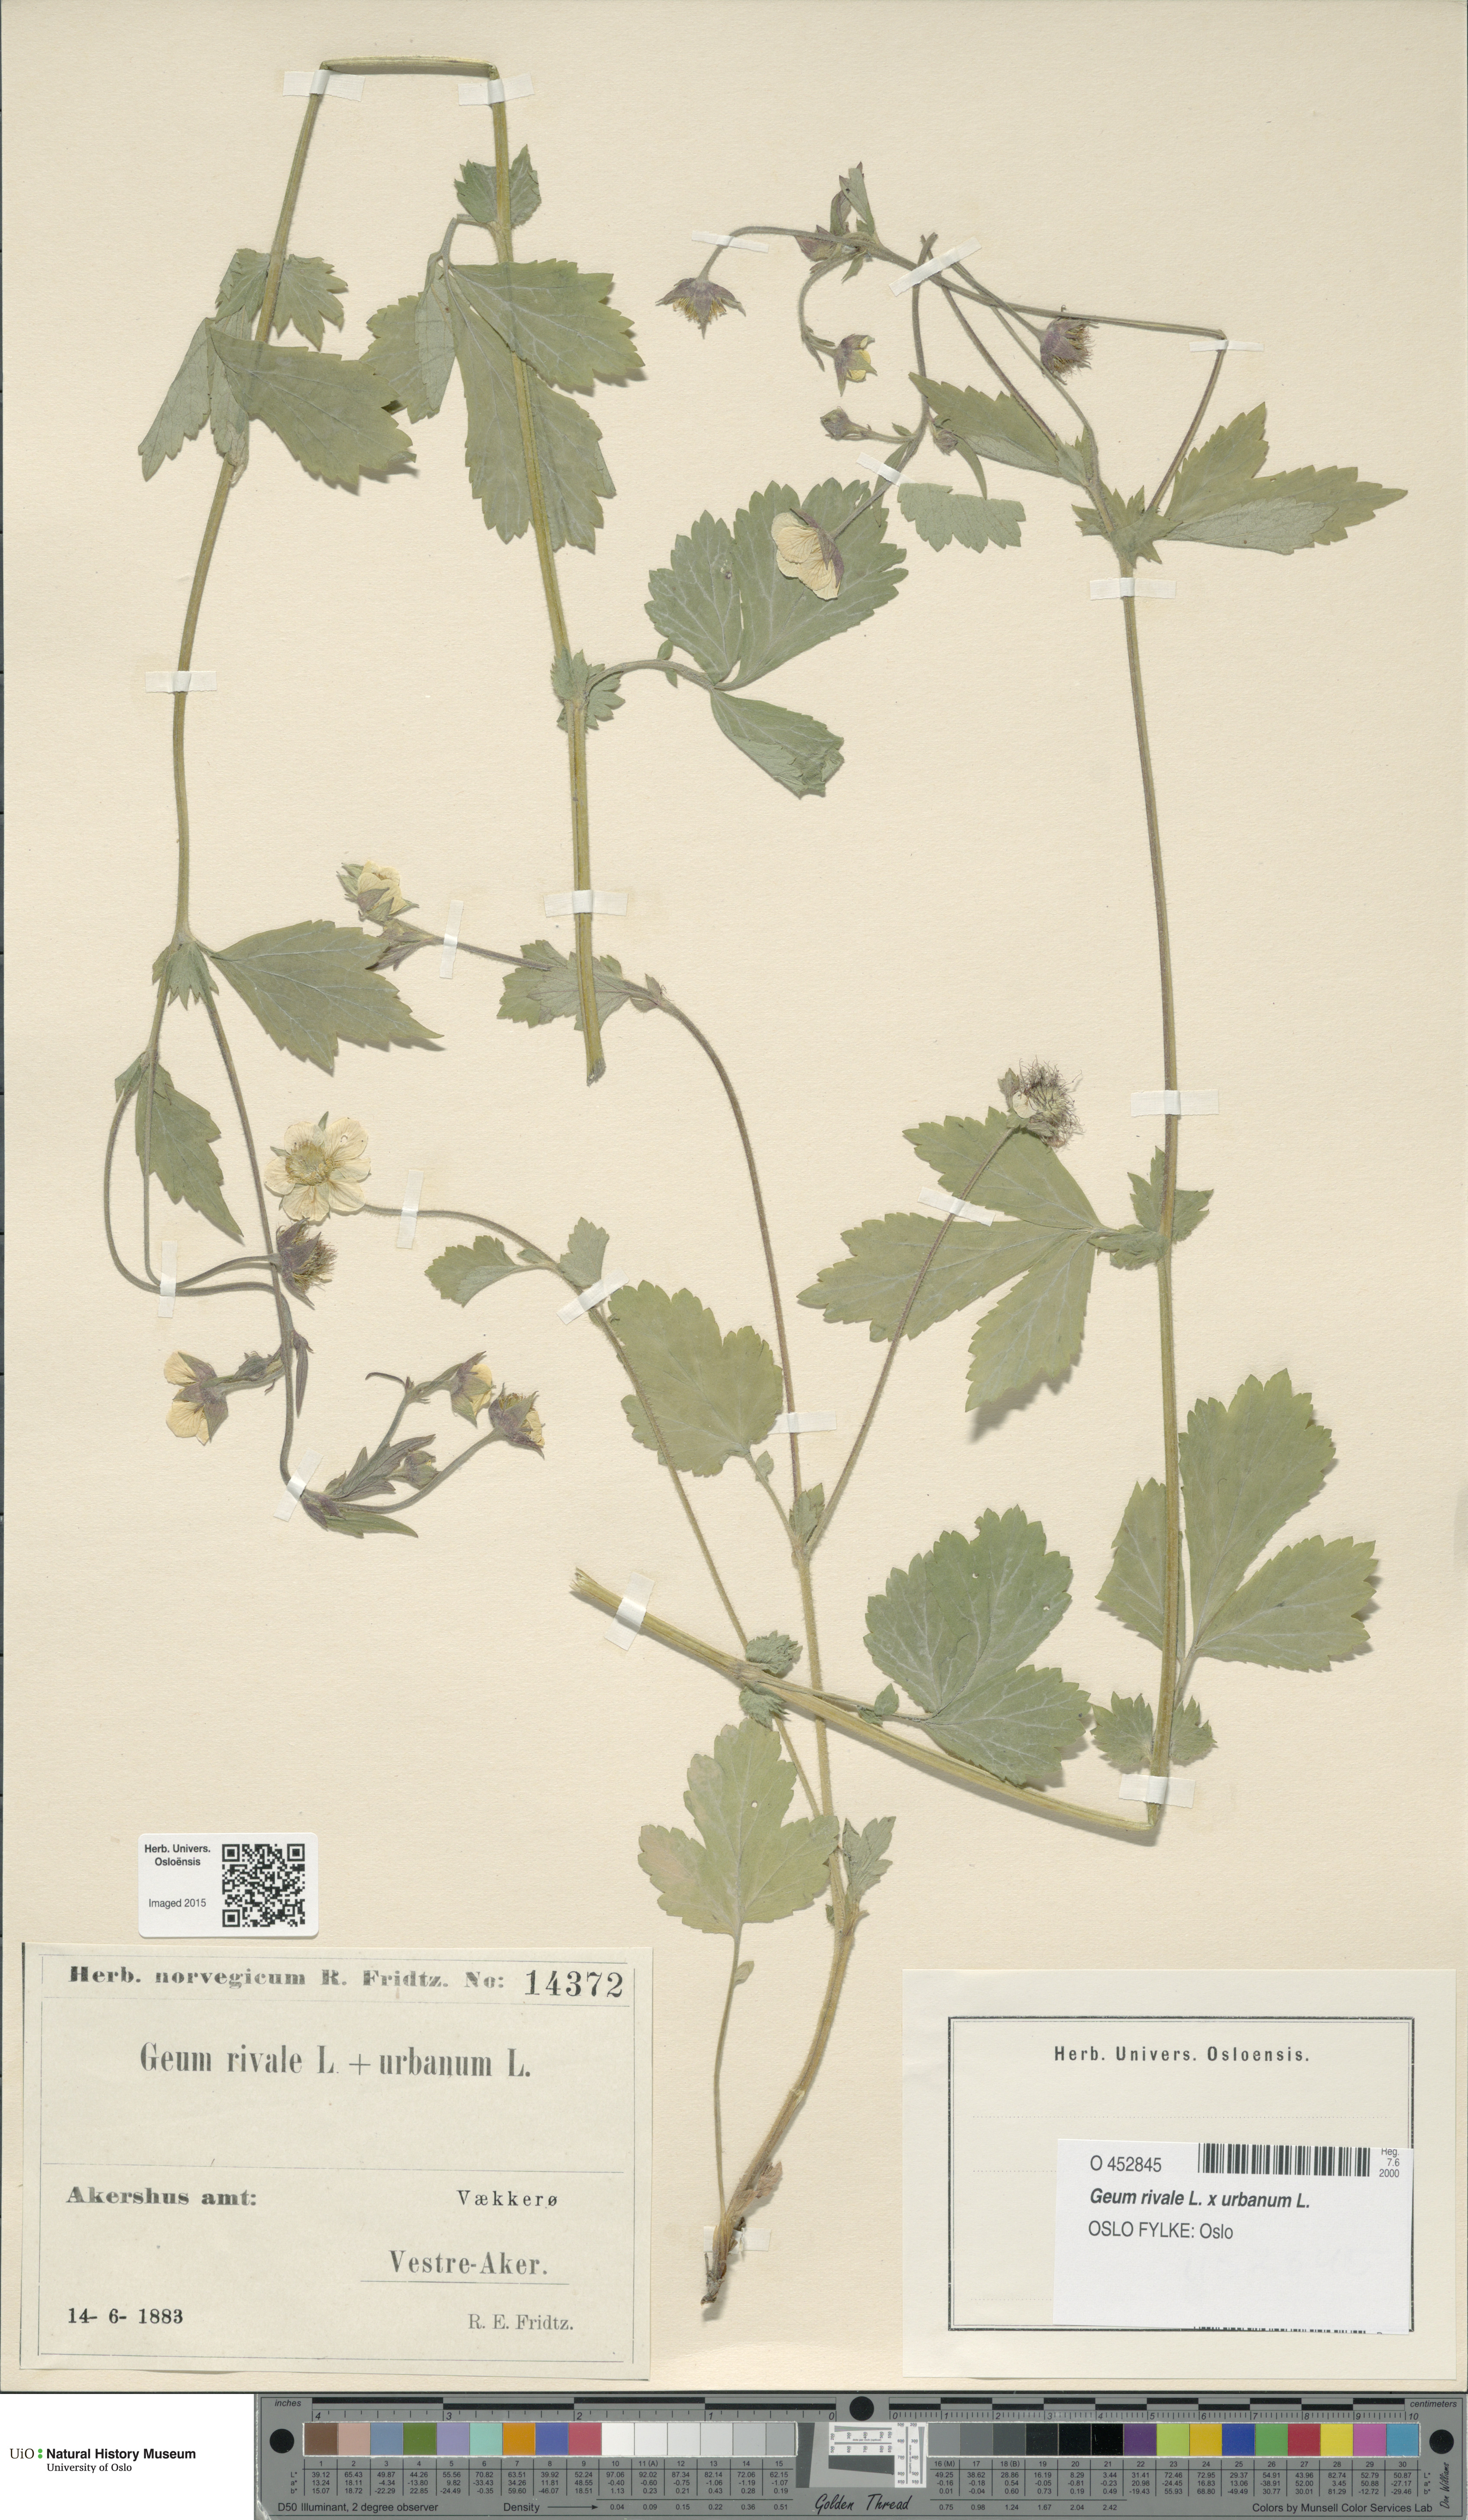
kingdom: Plantae
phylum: Tracheophyta
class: Magnoliopsida
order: Rosales
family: Rosaceae
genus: Geum
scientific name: Geum
